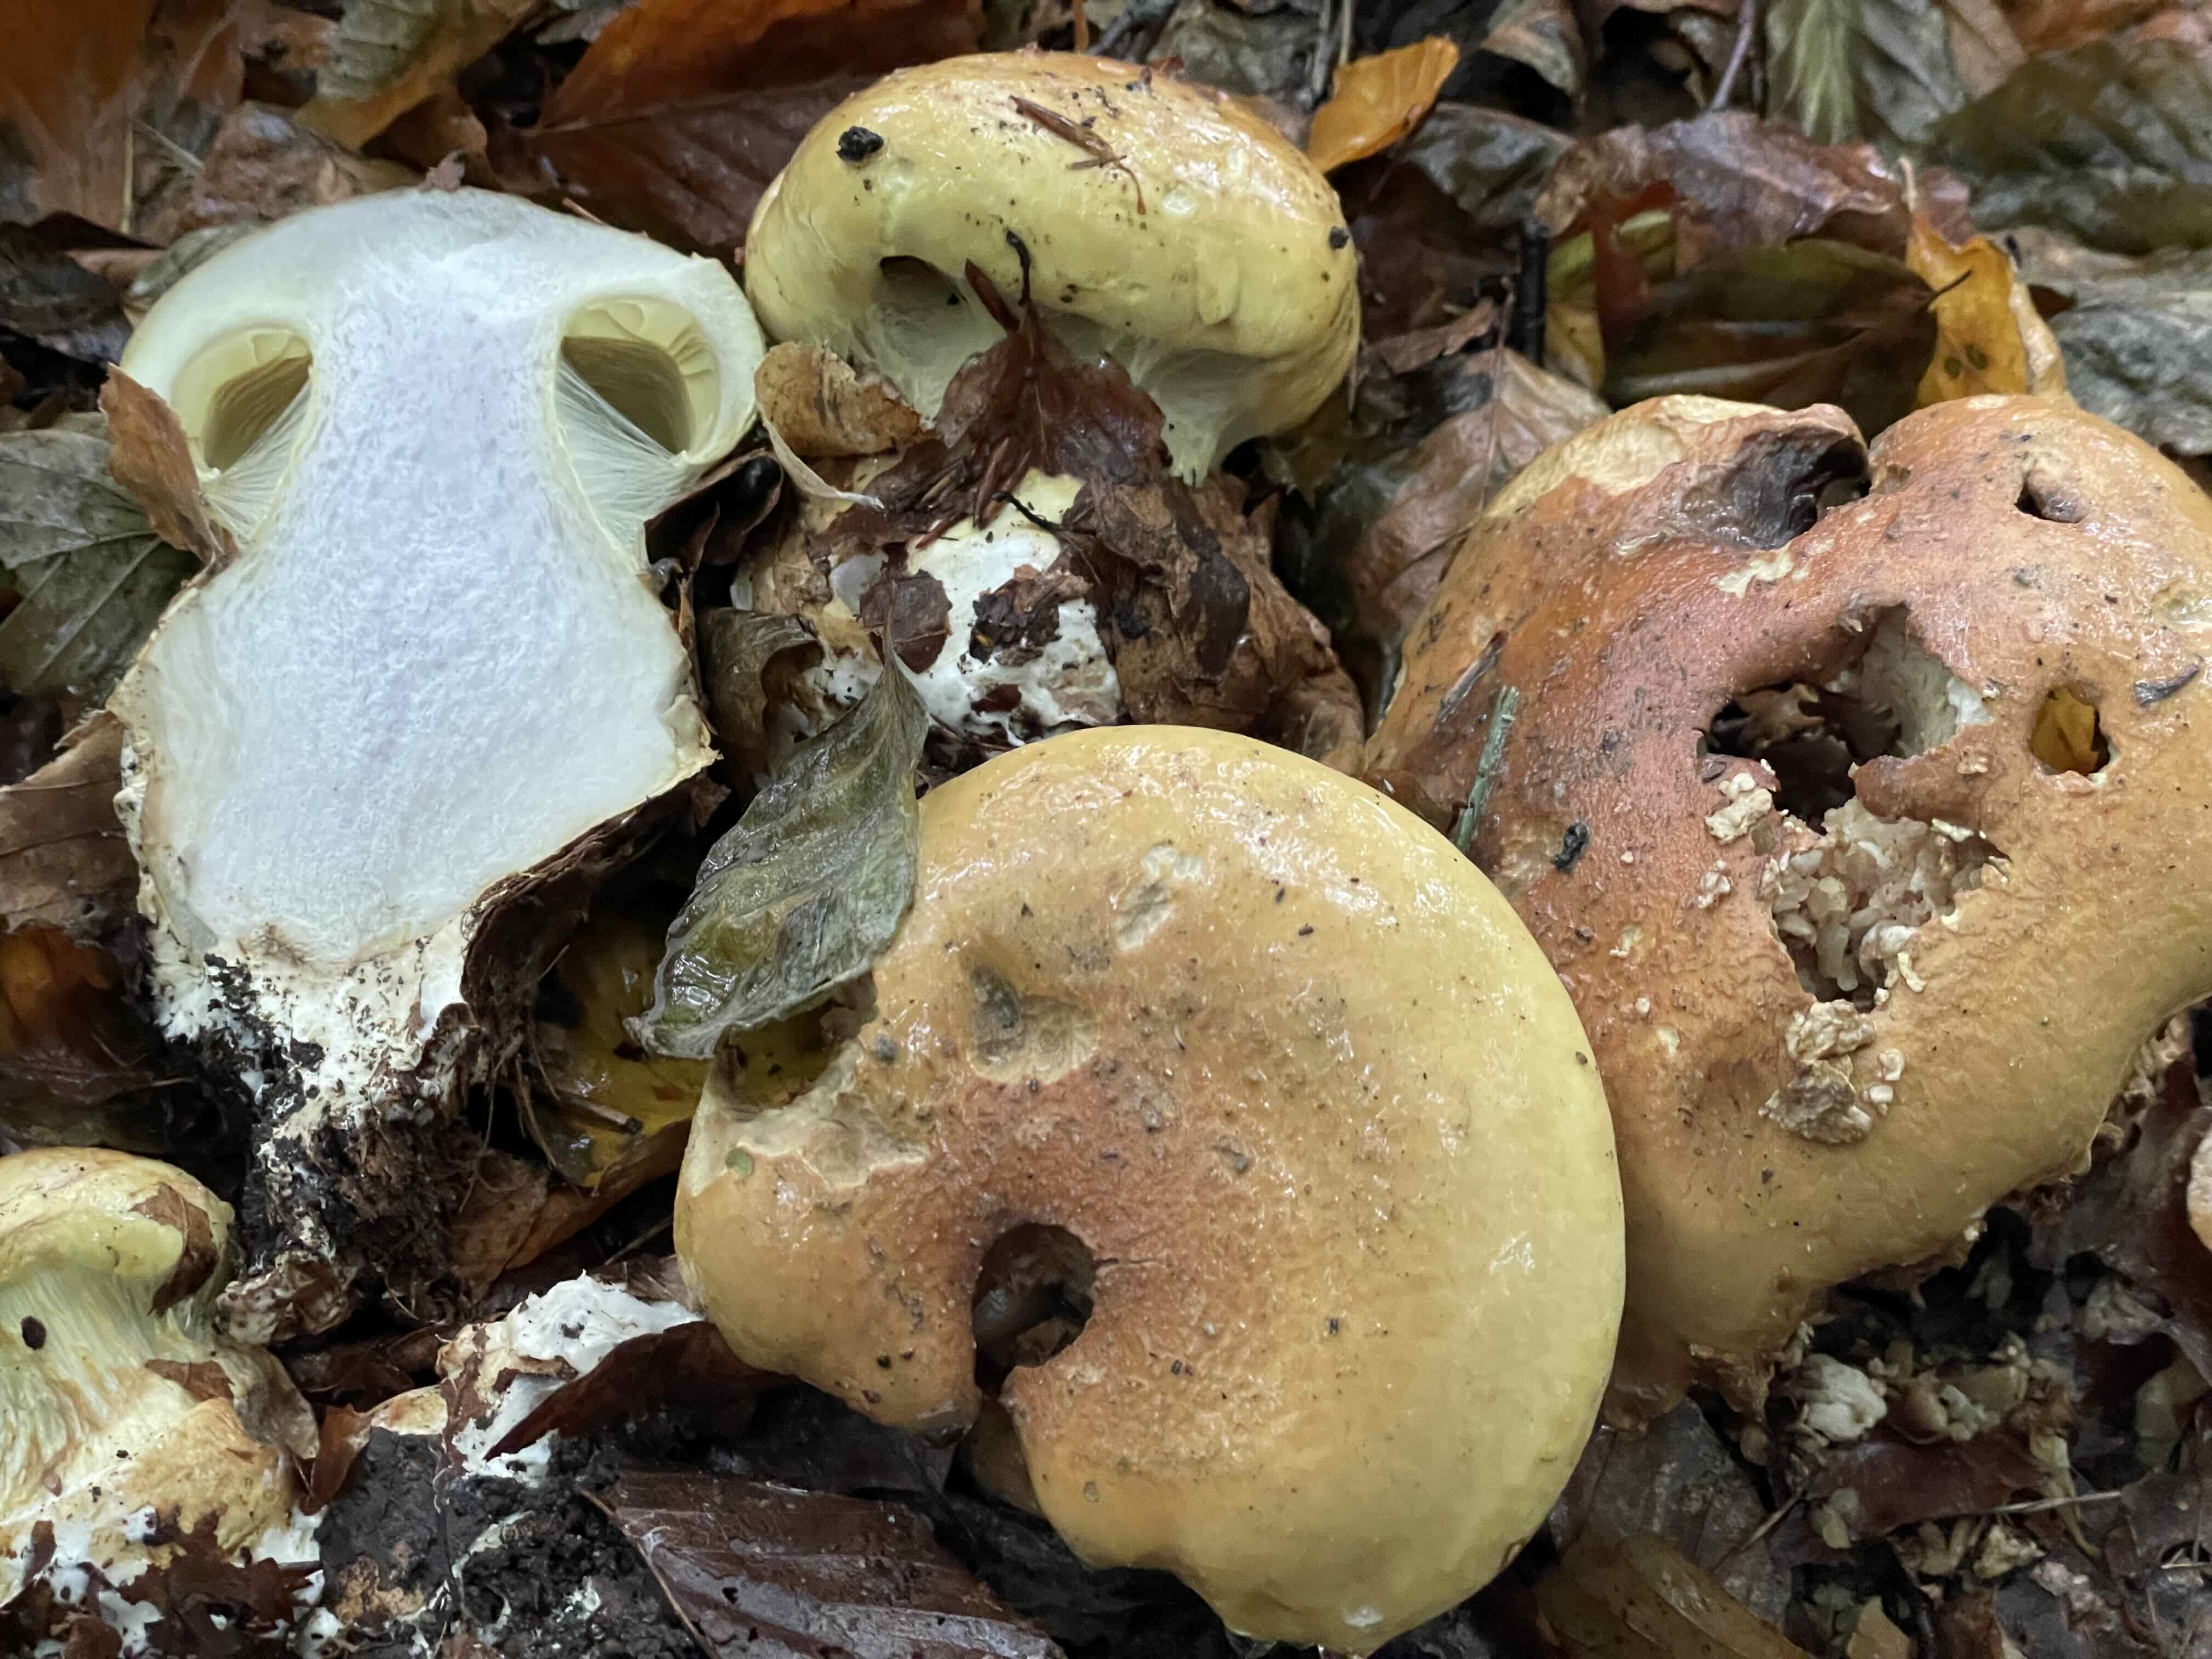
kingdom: Fungi
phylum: Basidiomycota
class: Agaricomycetes
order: Agaricales
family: Cortinariaceae
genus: Calonarius
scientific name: Calonarius elegantissimus
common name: orangegylden slørhat
